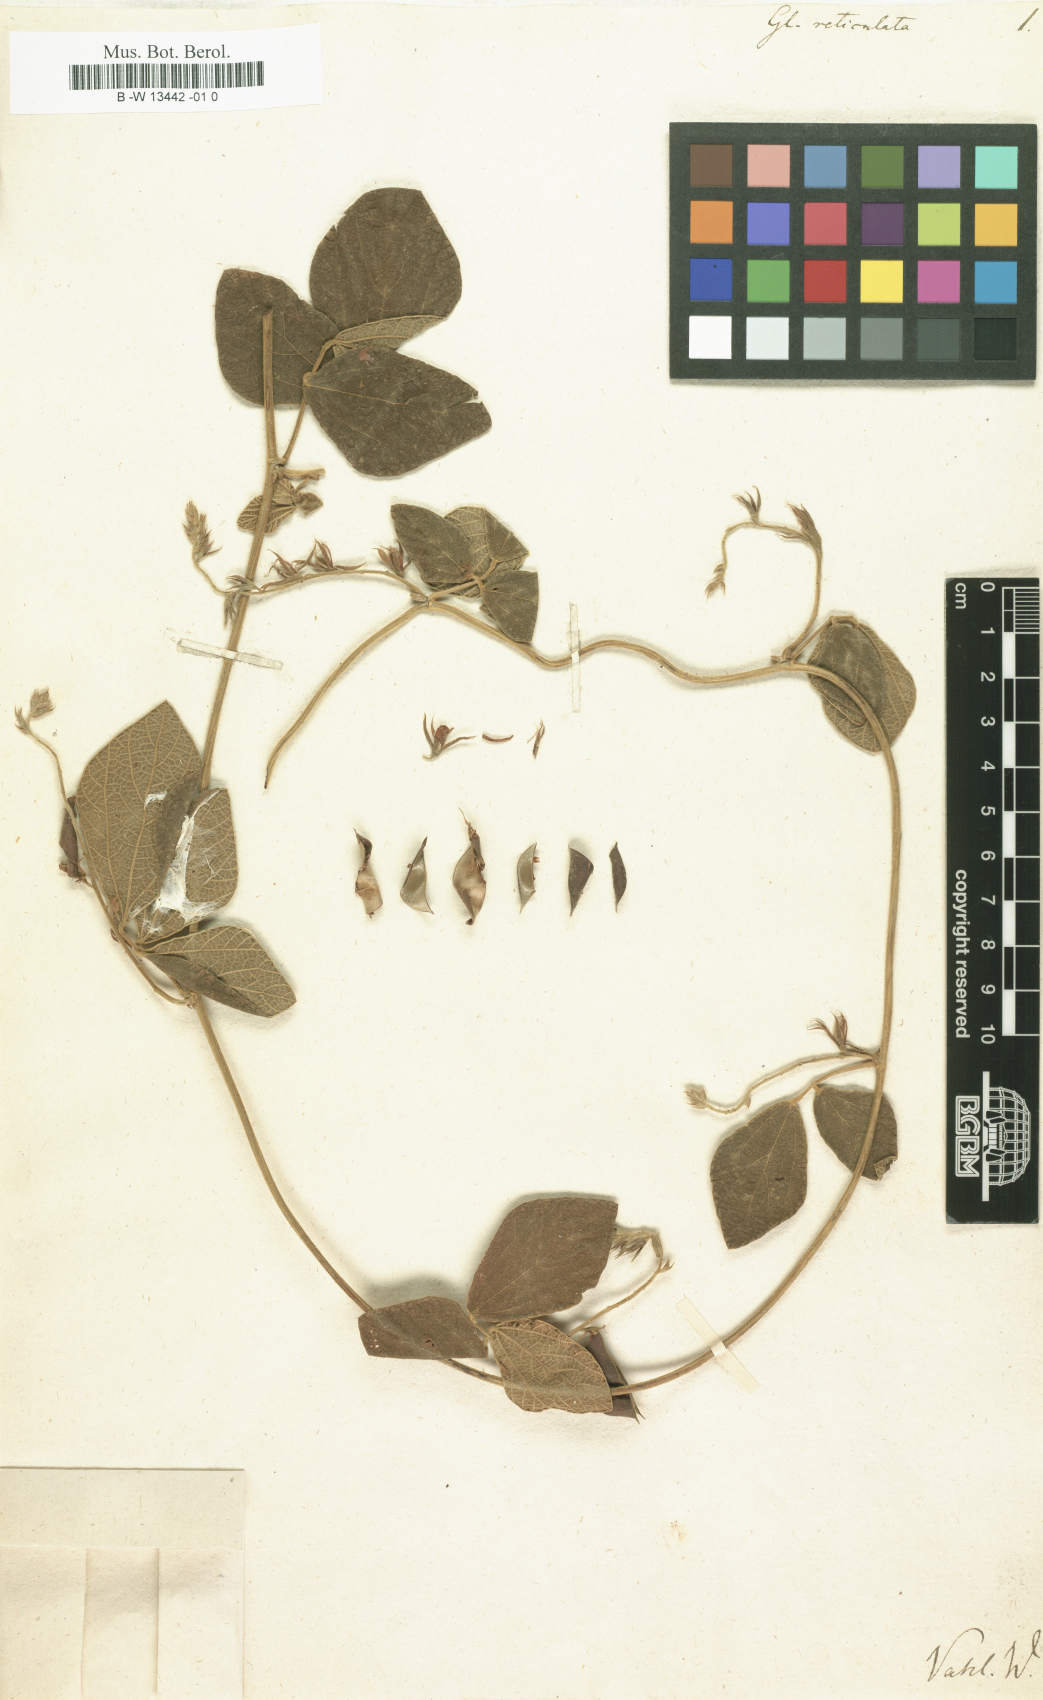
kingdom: Plantae
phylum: Tracheophyta
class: Magnoliopsida
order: Fabales
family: Fabaceae
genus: Rhynchosia
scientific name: Rhynchosia reticulata
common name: Pea withe
